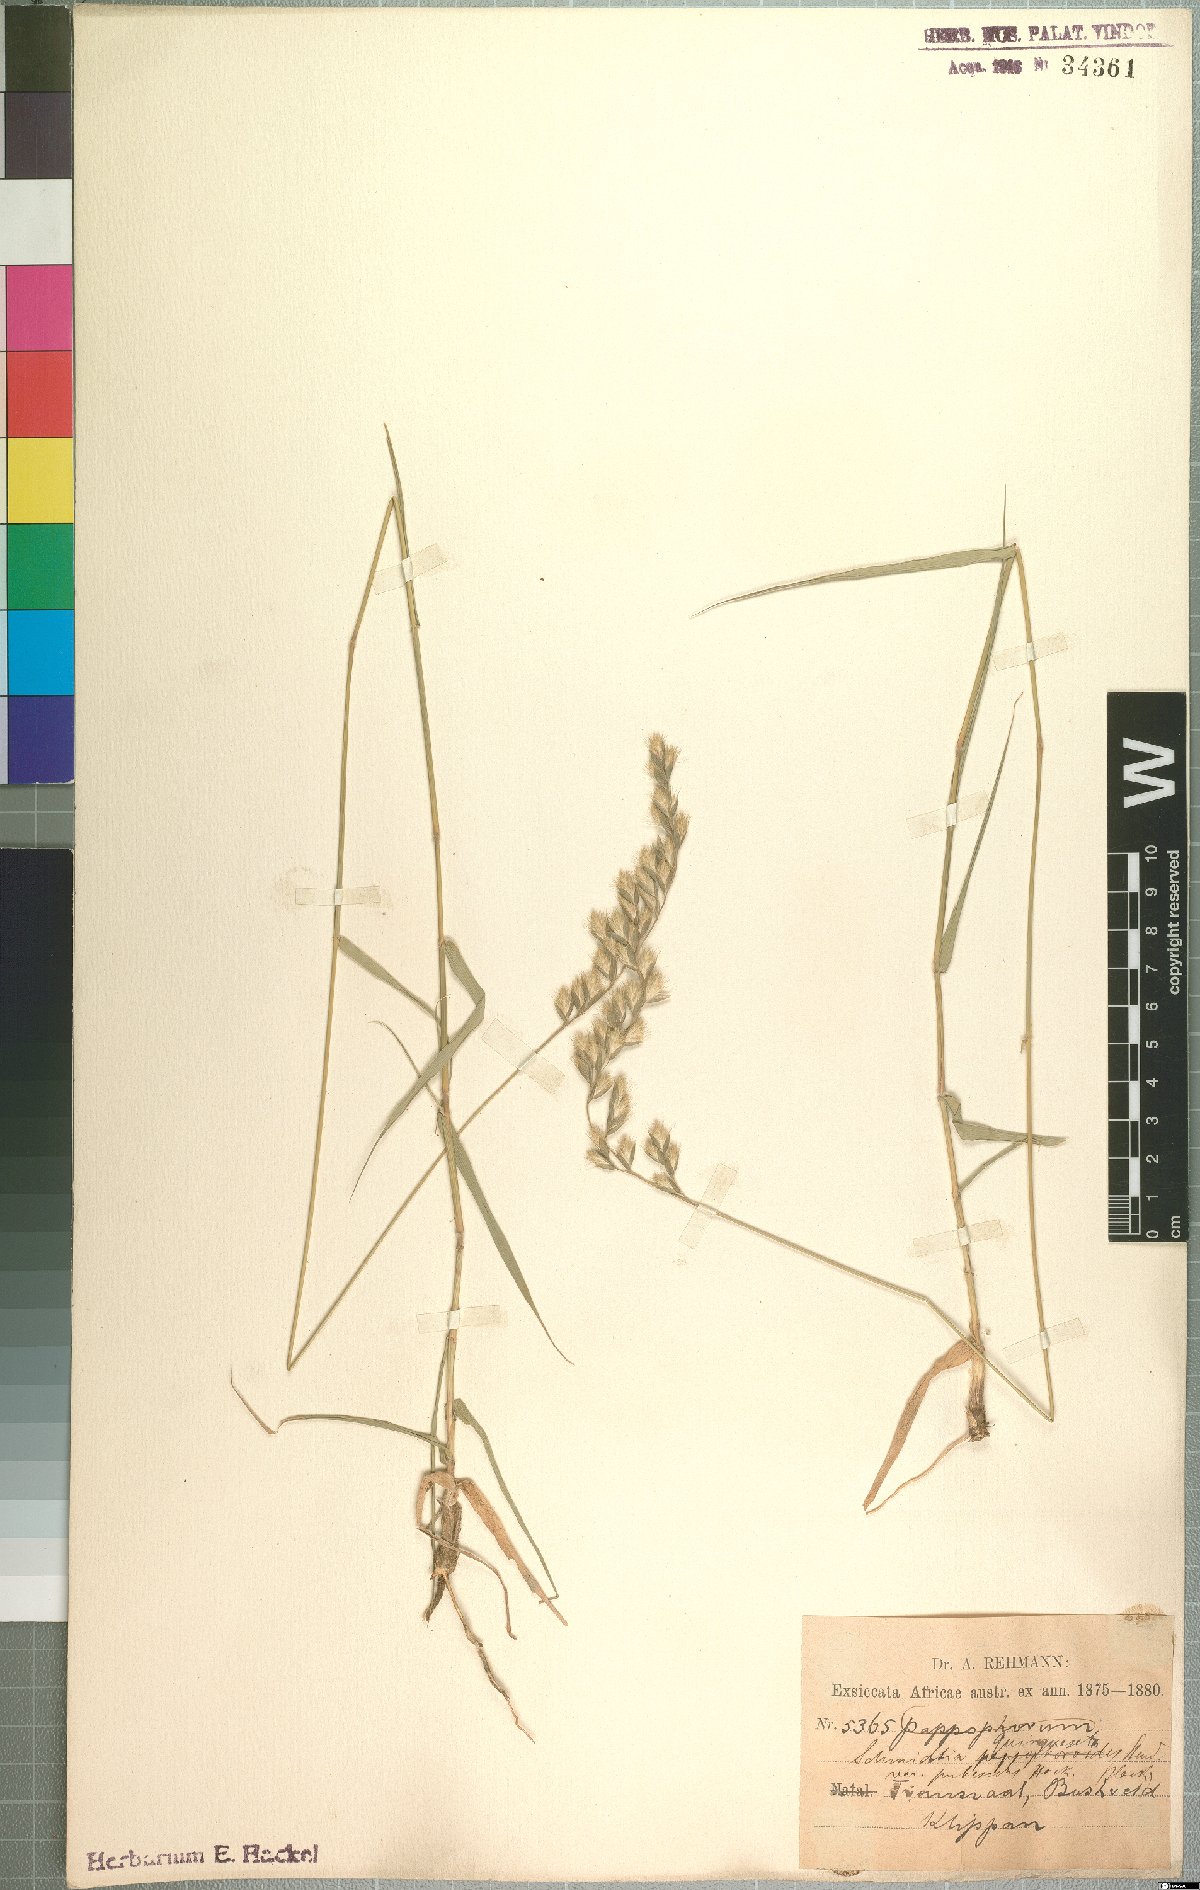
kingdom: Plantae
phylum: Tracheophyta
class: Liliopsida
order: Poales
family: Poaceae
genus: Schmidtia
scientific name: Schmidtia pappophoroides
